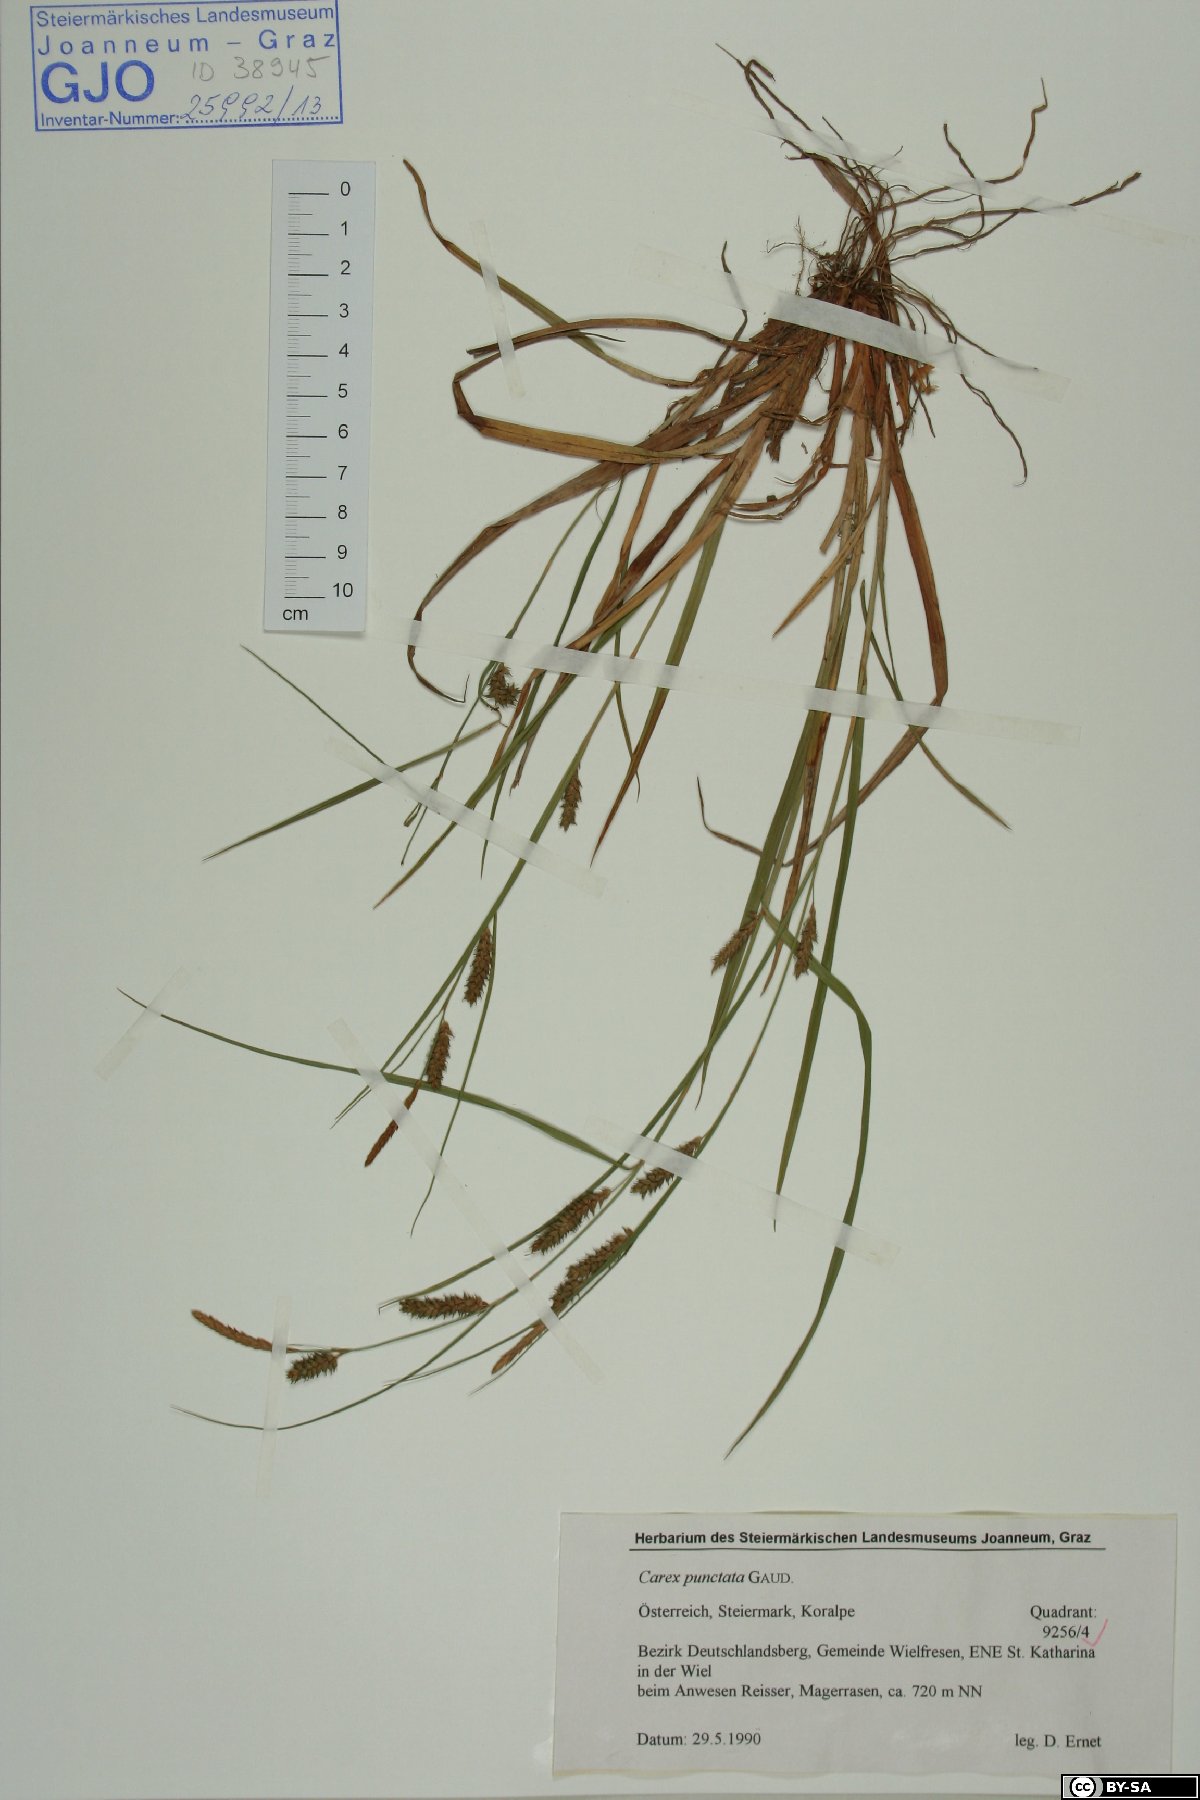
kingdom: Plantae
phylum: Tracheophyta
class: Liliopsida
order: Poales
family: Cyperaceae
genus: Carex
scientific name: Carex punctata
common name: Dotted sedge
